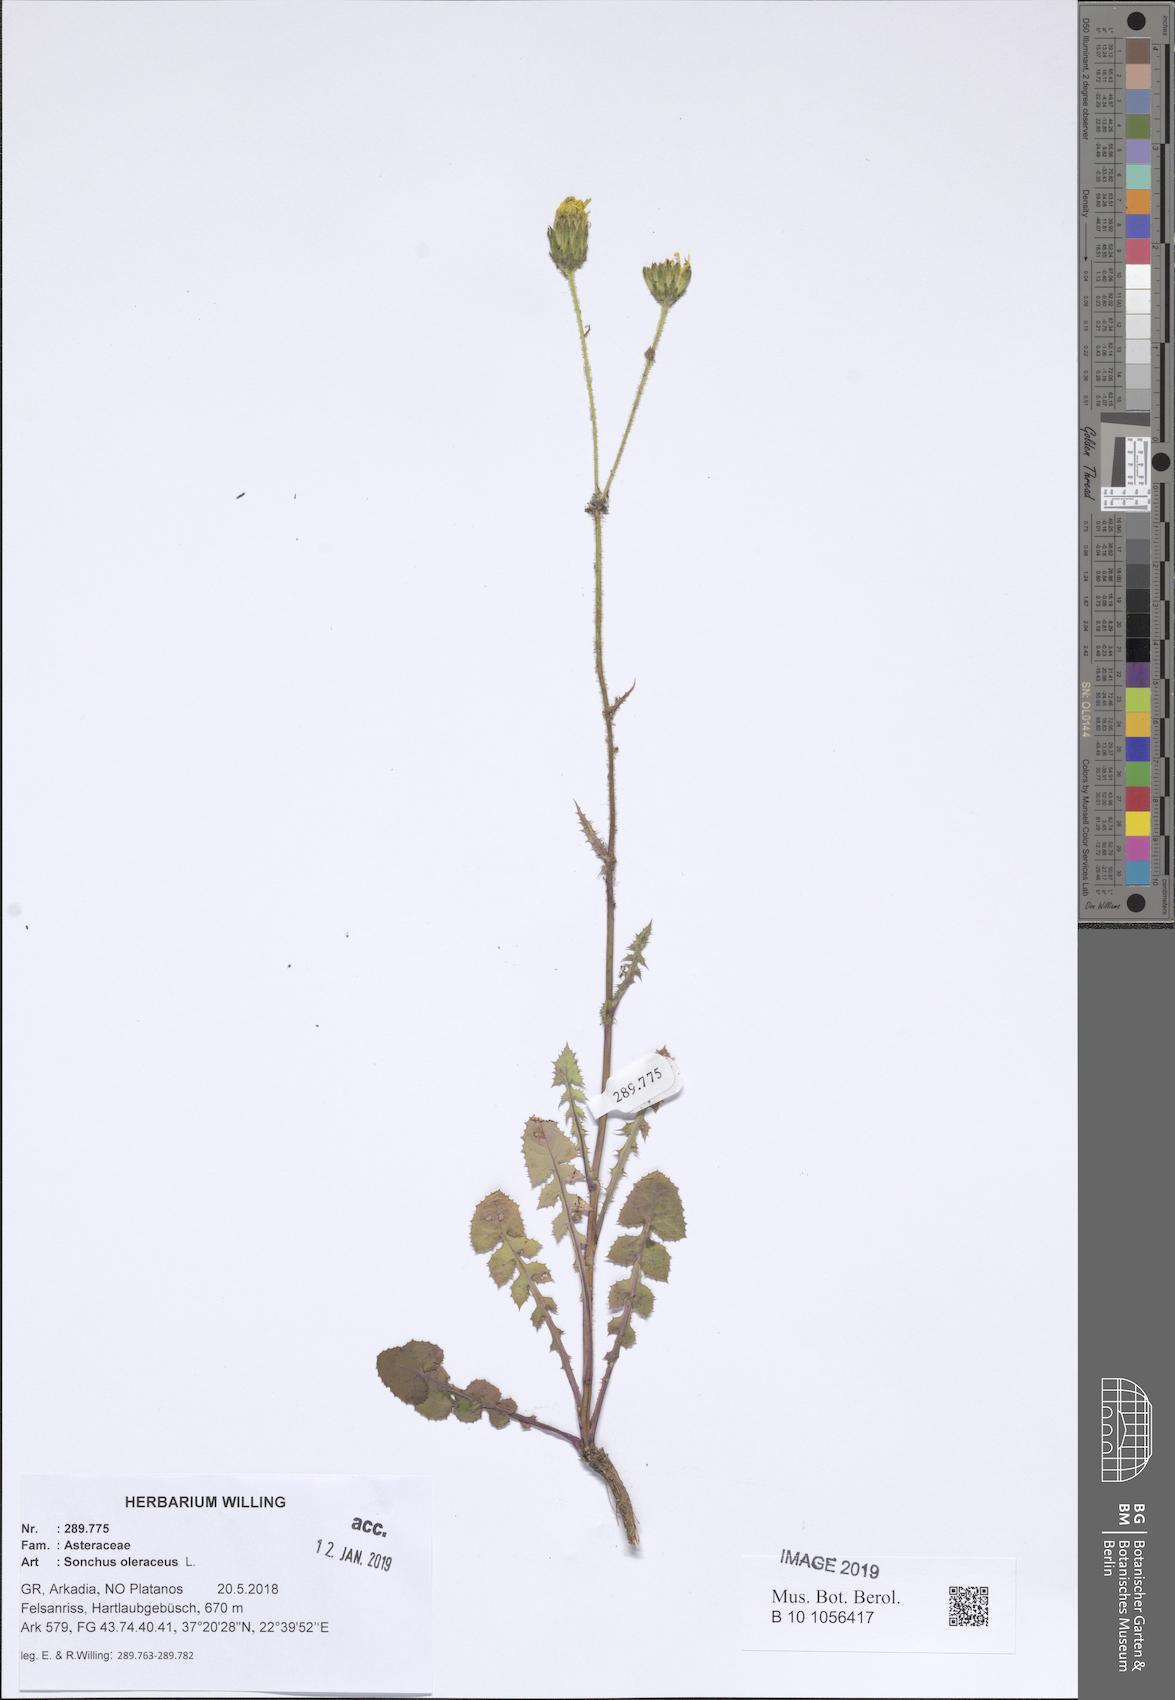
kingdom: Plantae
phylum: Tracheophyta
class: Magnoliopsida
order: Asterales
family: Asteraceae
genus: Sonchus
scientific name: Sonchus oleraceus
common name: Common sowthistle
